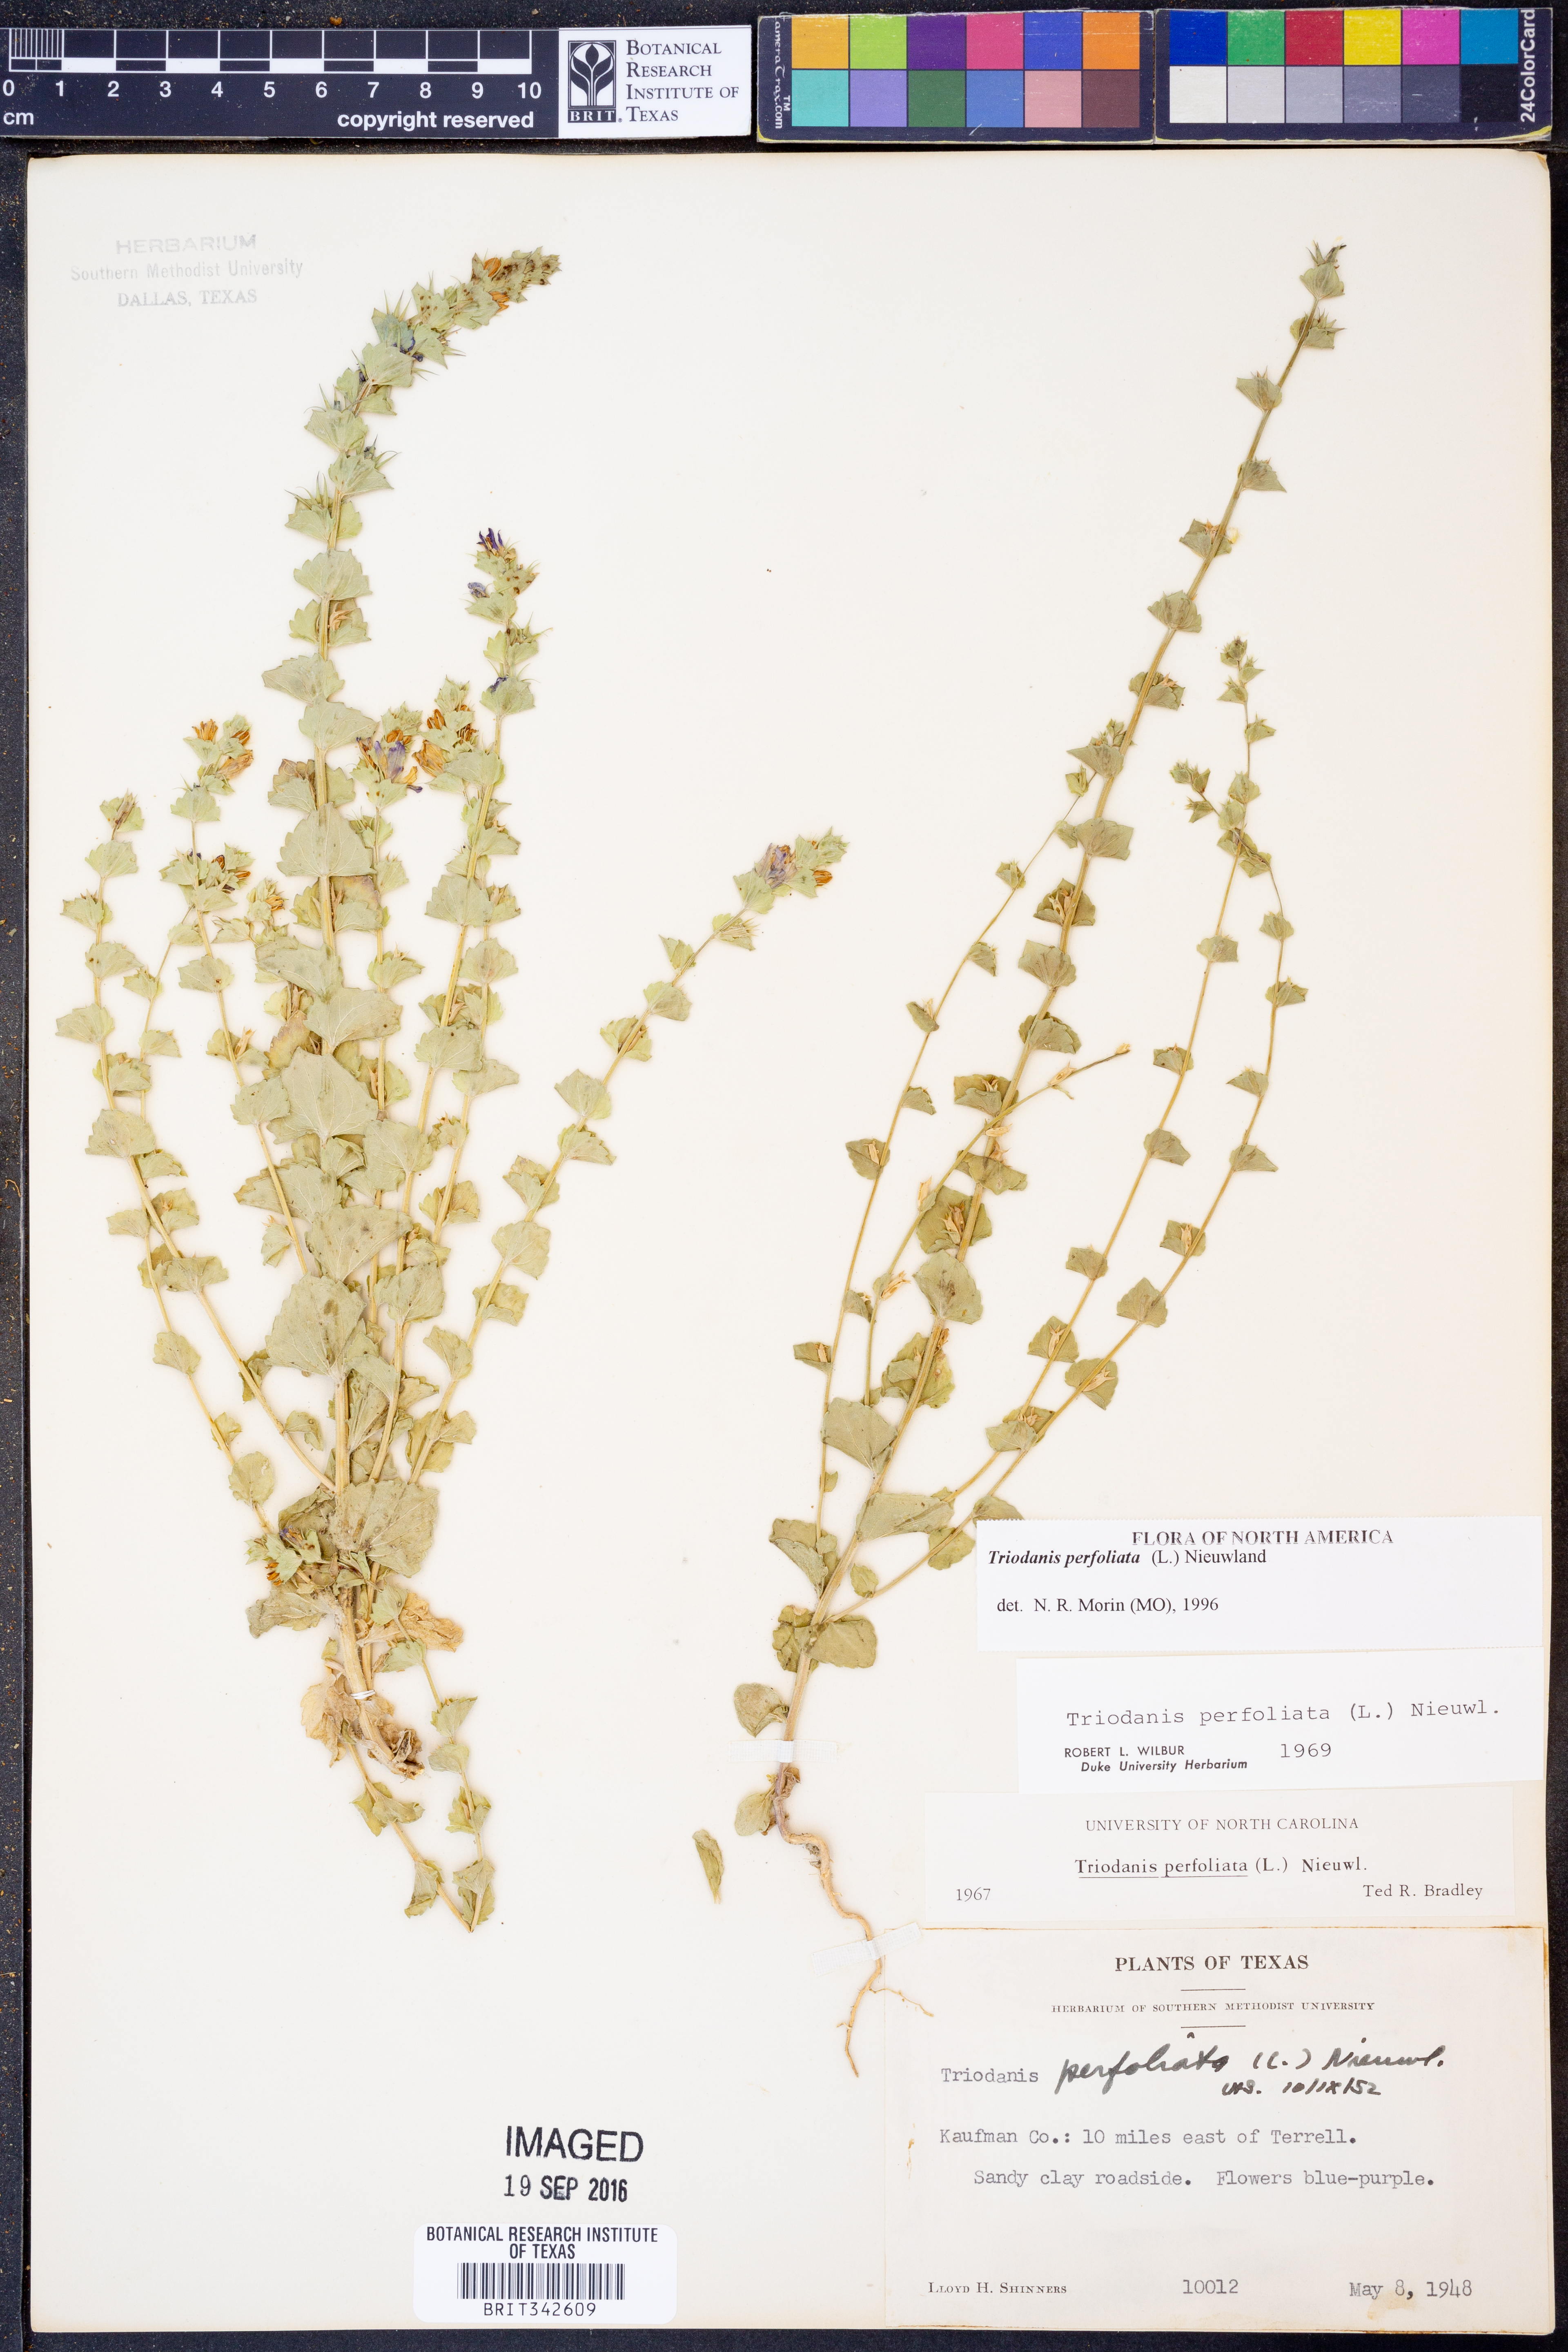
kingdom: Plantae
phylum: Tracheophyta
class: Magnoliopsida
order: Asterales
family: Campanulaceae
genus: Triodanis
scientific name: Triodanis perfoliata
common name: Clasping venus' looking-glass
